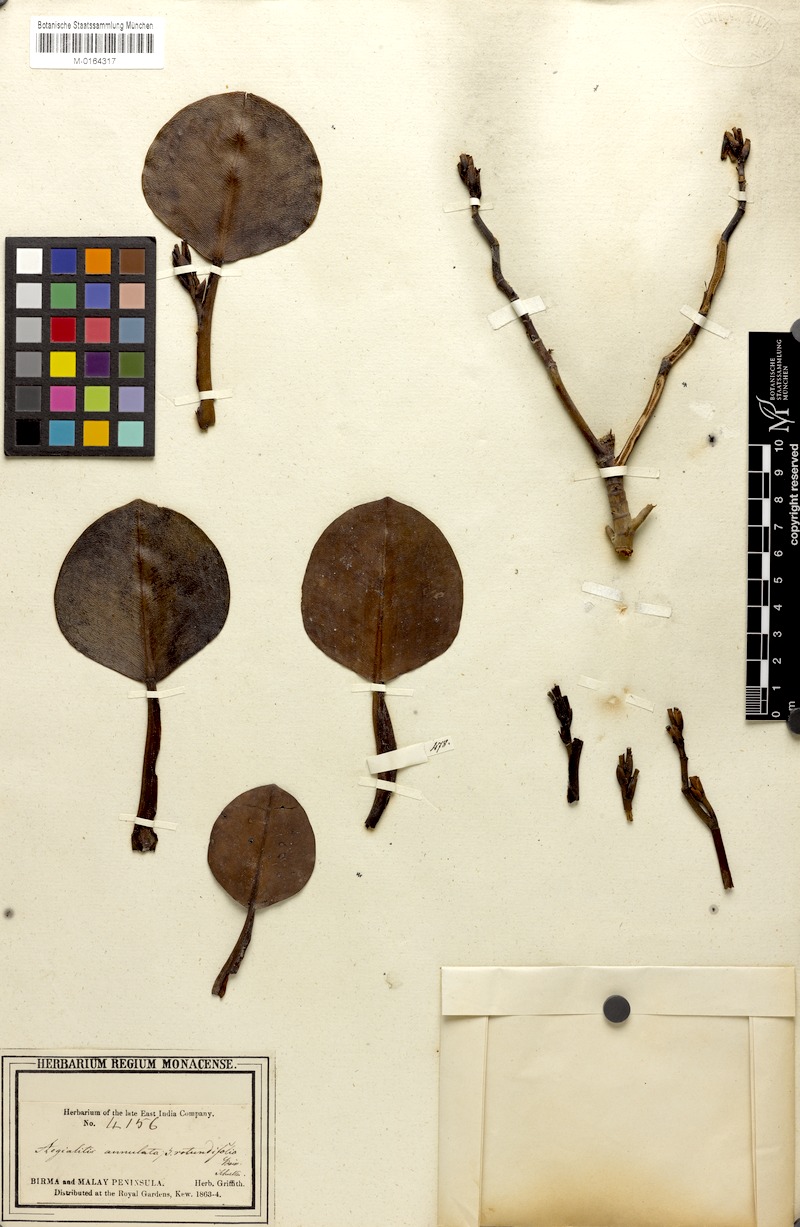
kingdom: Plantae
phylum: Tracheophyta
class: Magnoliopsida
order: Caryophyllales
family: Plumbaginaceae
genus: Aegialitis
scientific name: Aegialitis rotundifolia
